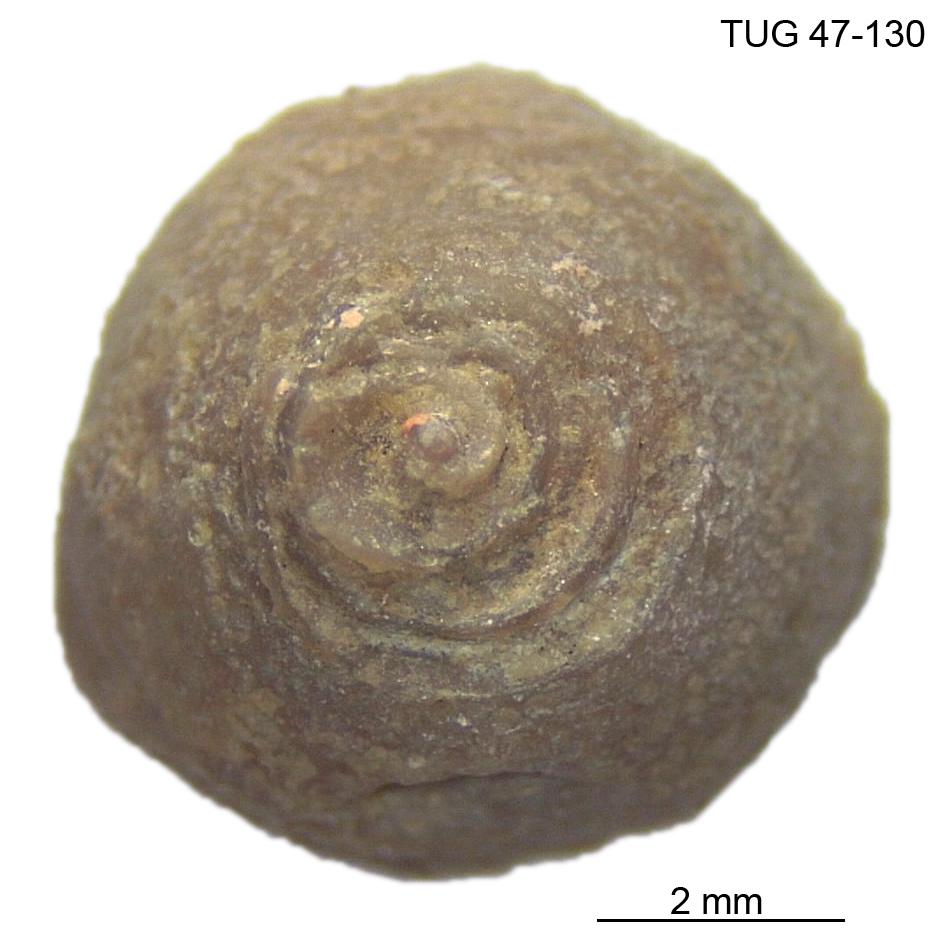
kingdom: Animalia
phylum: Mollusca
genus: Anticalyptraea
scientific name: Anticalyptraea westergaardi
